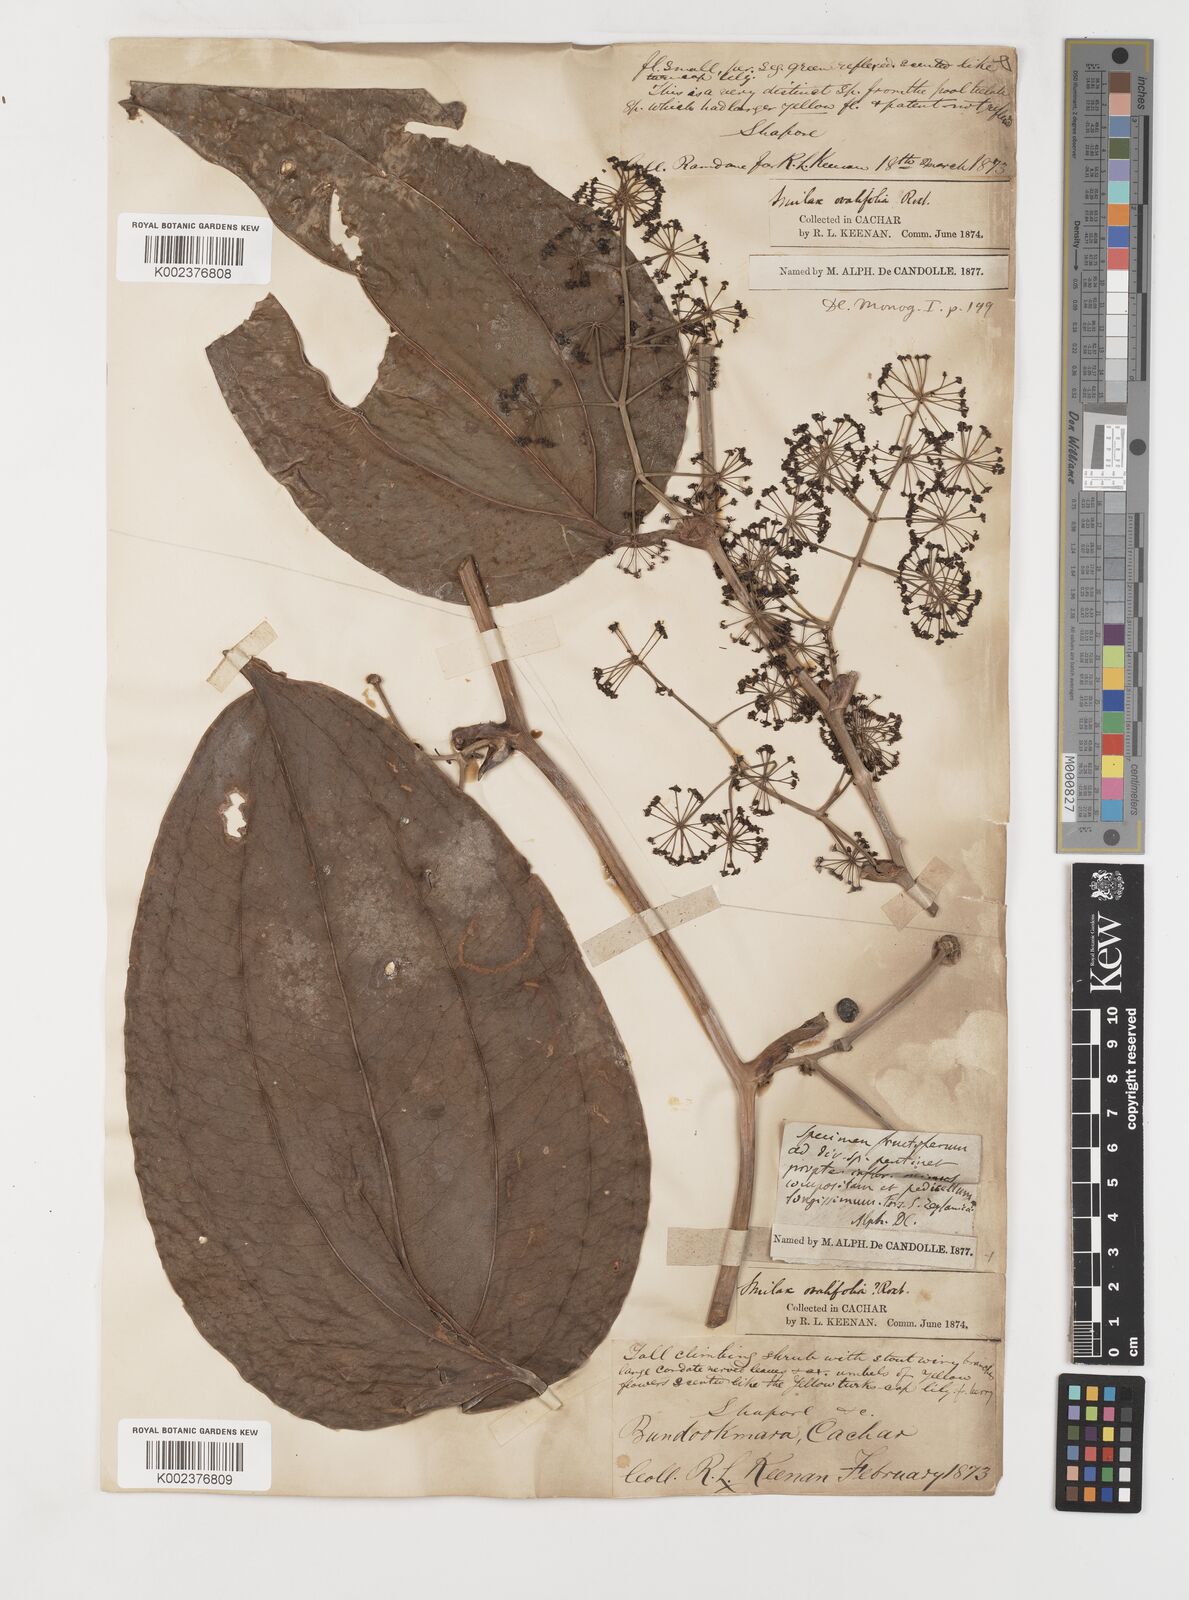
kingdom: Plantae
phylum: Tracheophyta
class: Liliopsida
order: Liliales
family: Smilacaceae
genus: Smilax
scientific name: Smilax prolifera
